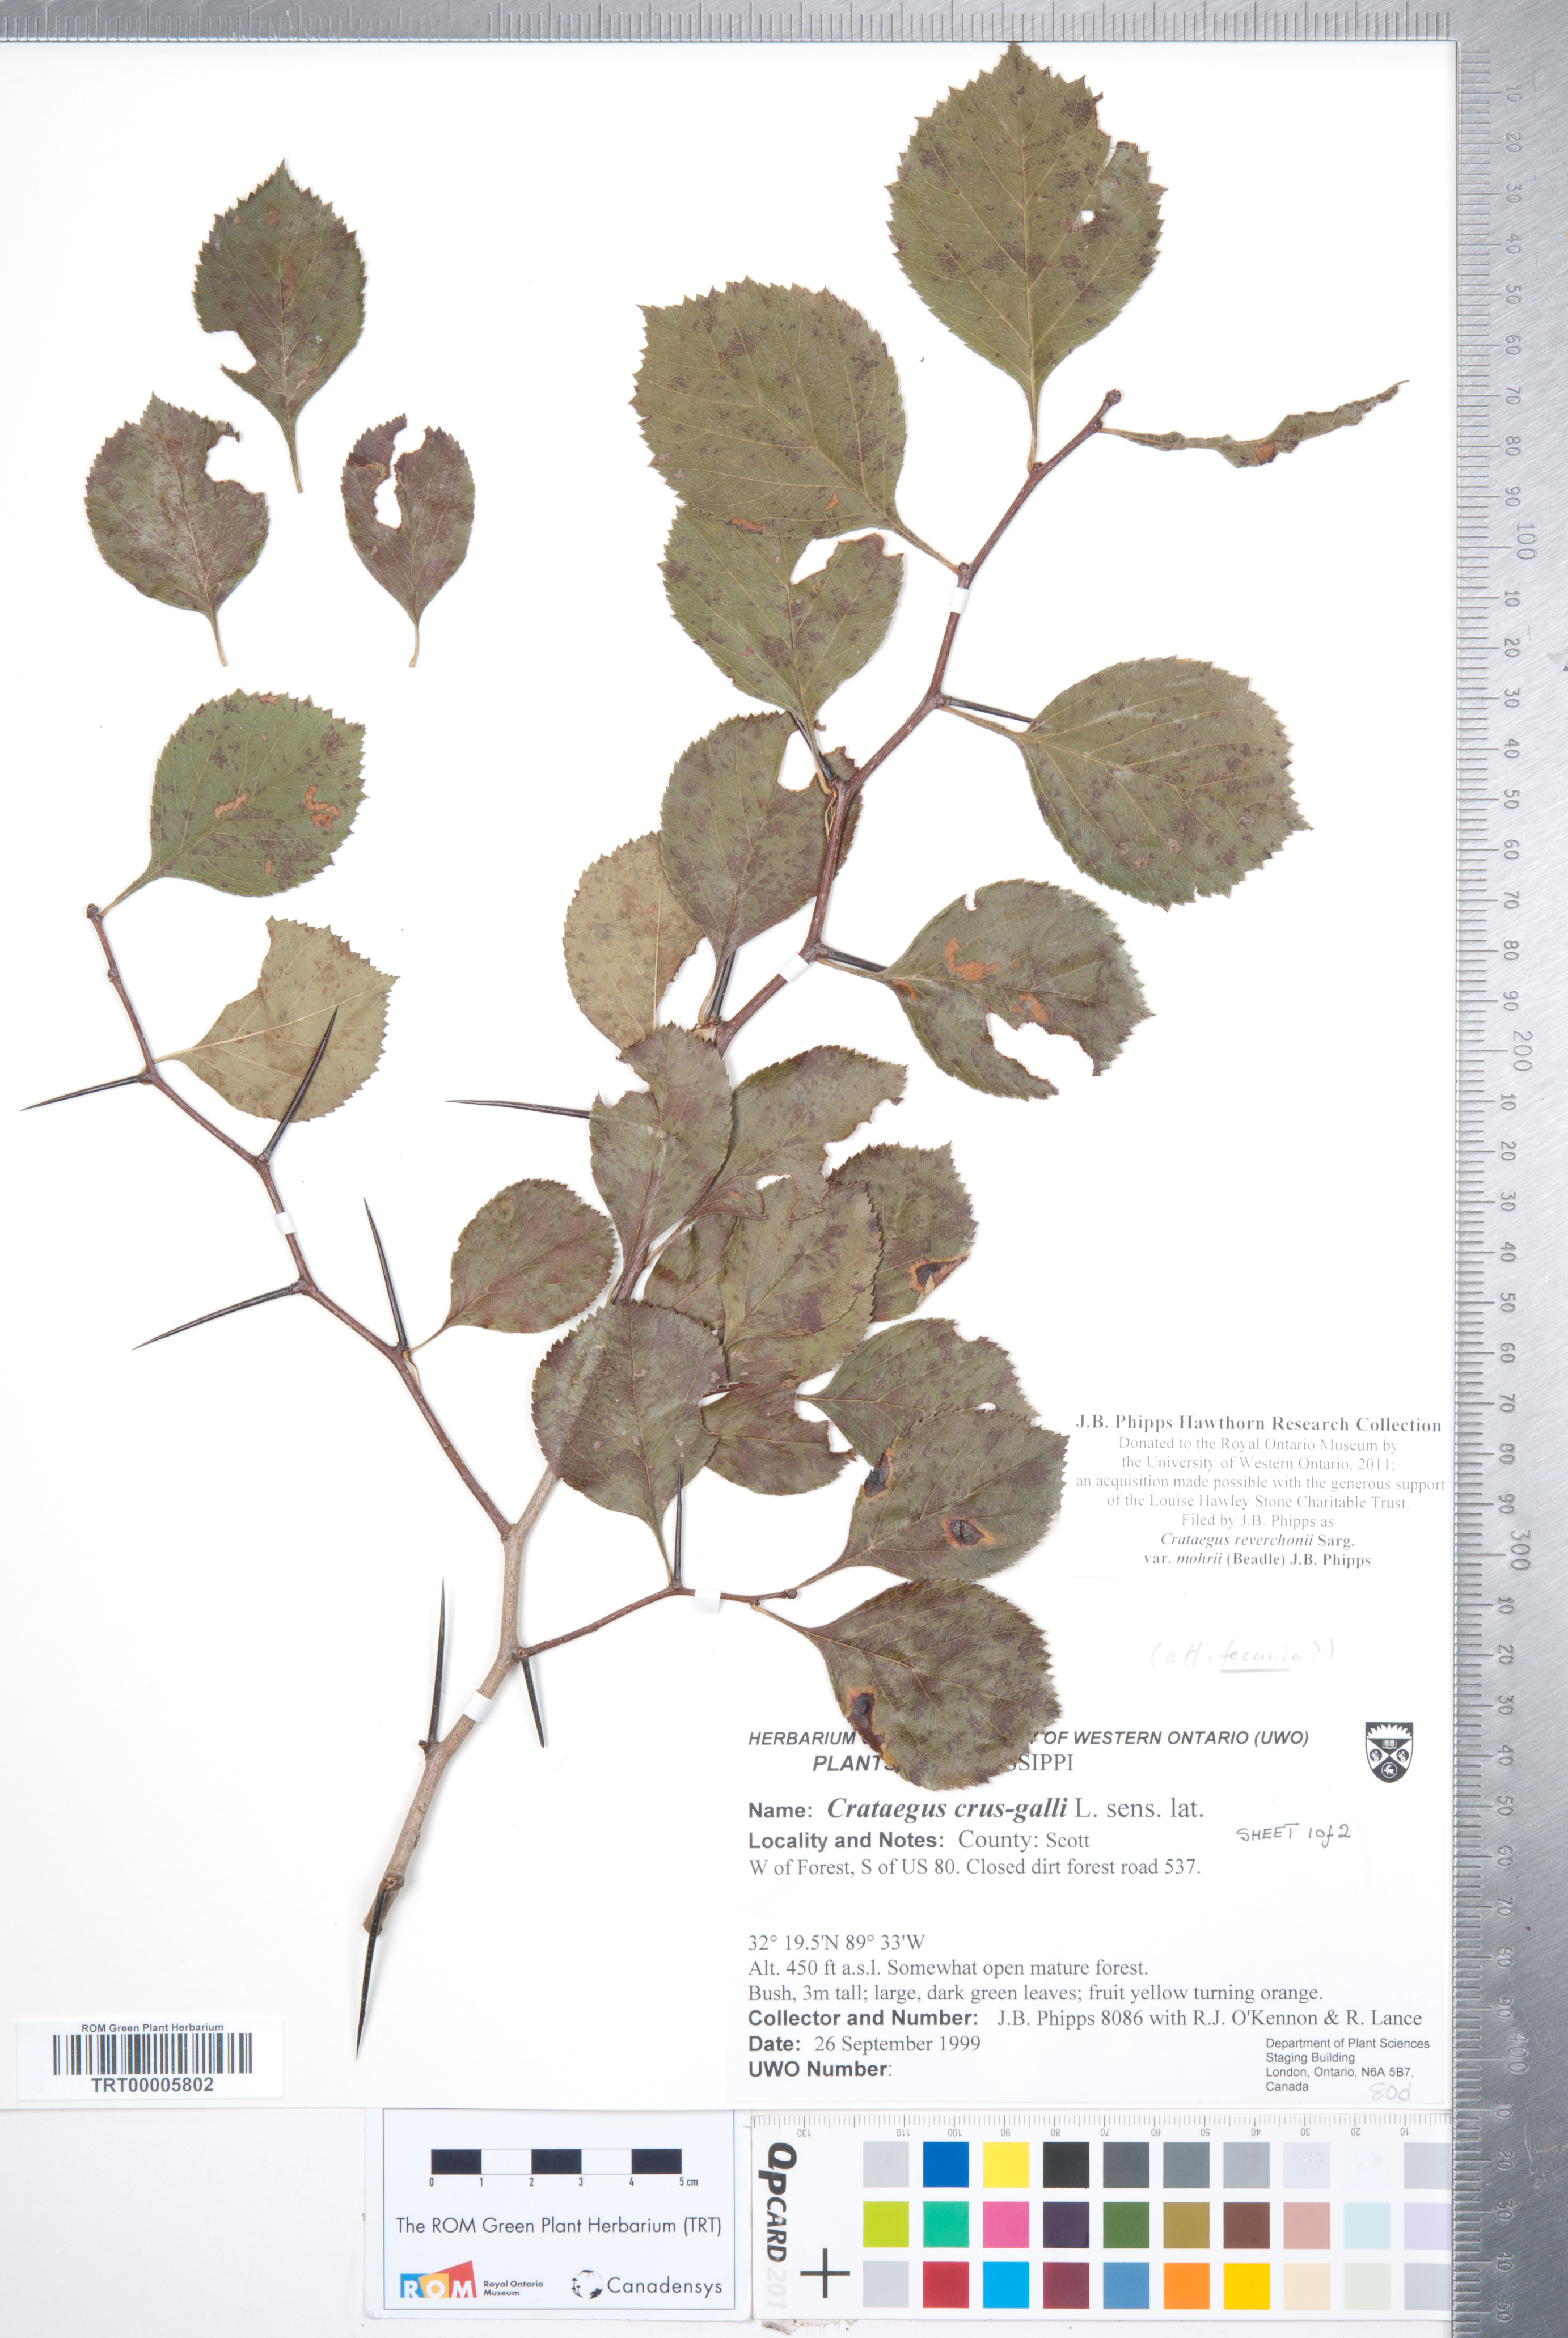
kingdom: Plantae
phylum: Tracheophyta
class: Magnoliopsida
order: Rosales
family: Rosaceae
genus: Crataegus
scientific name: Crataegus reverchonii
